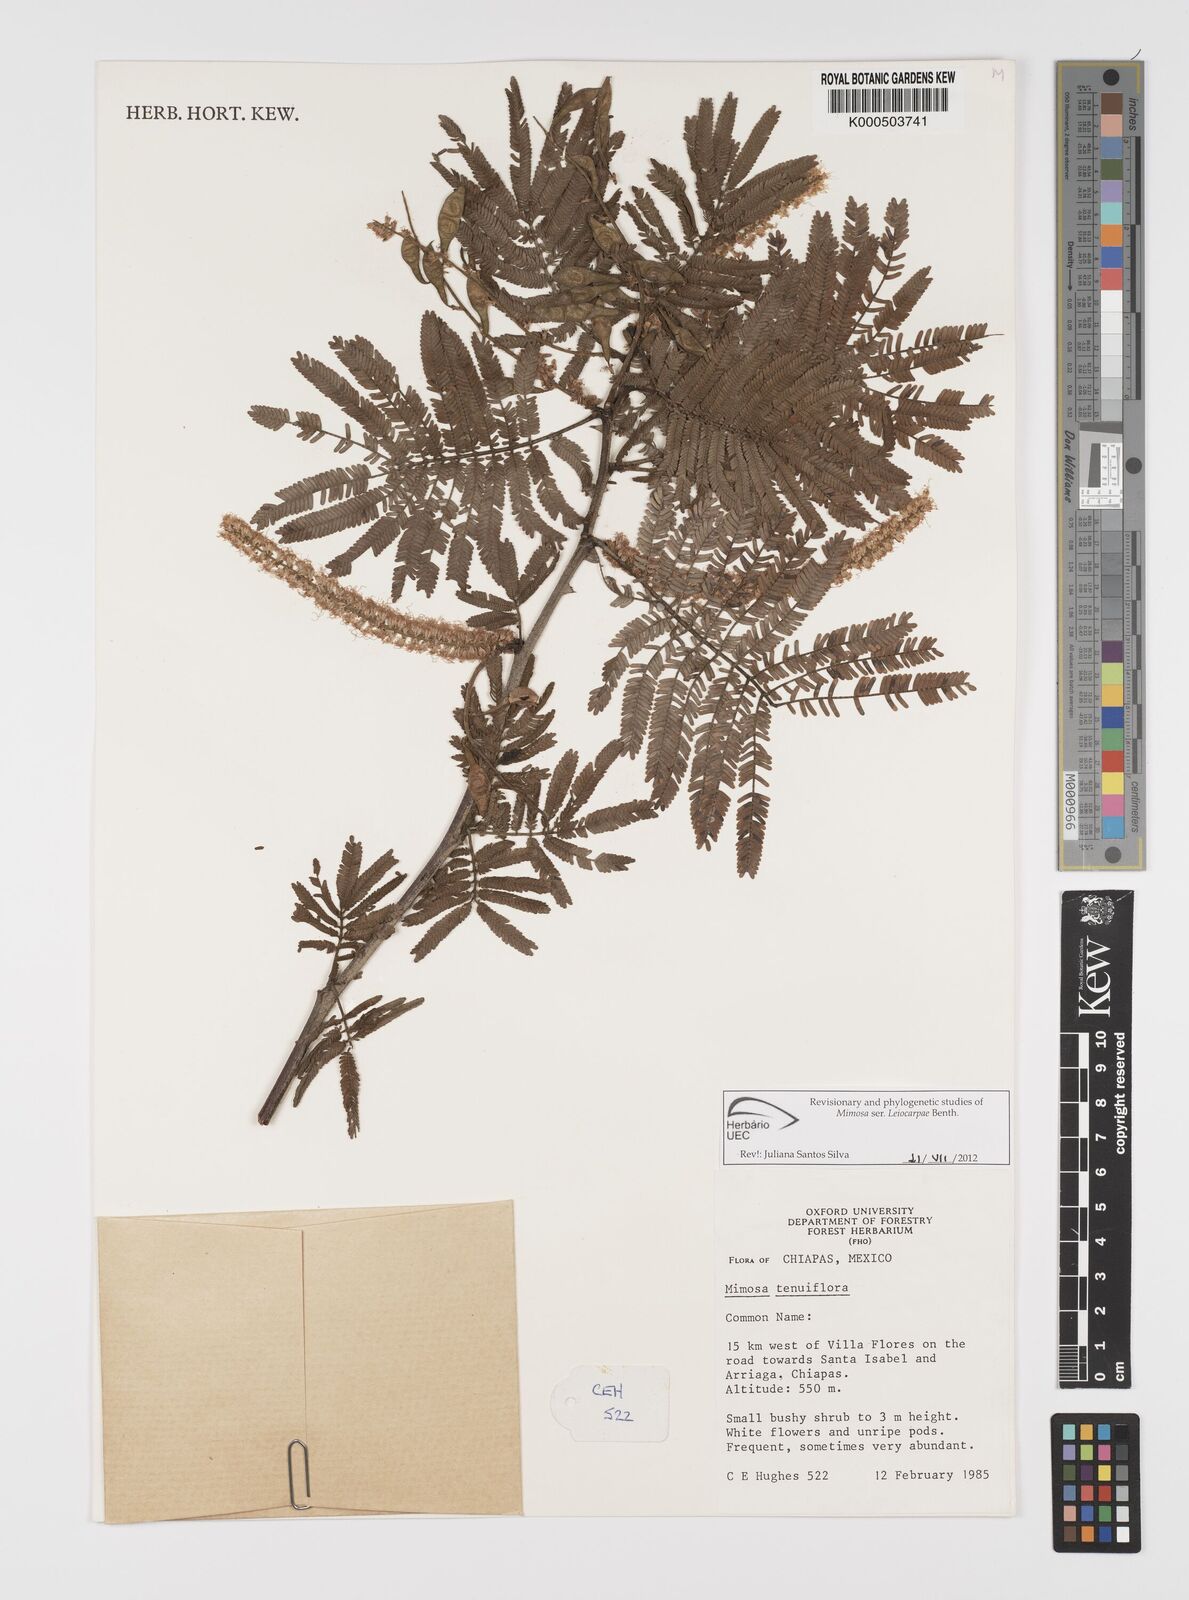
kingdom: Plantae
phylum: Tracheophyta
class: Magnoliopsida
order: Fabales
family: Fabaceae
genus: Mimosa
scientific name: Mimosa tenuiflora
